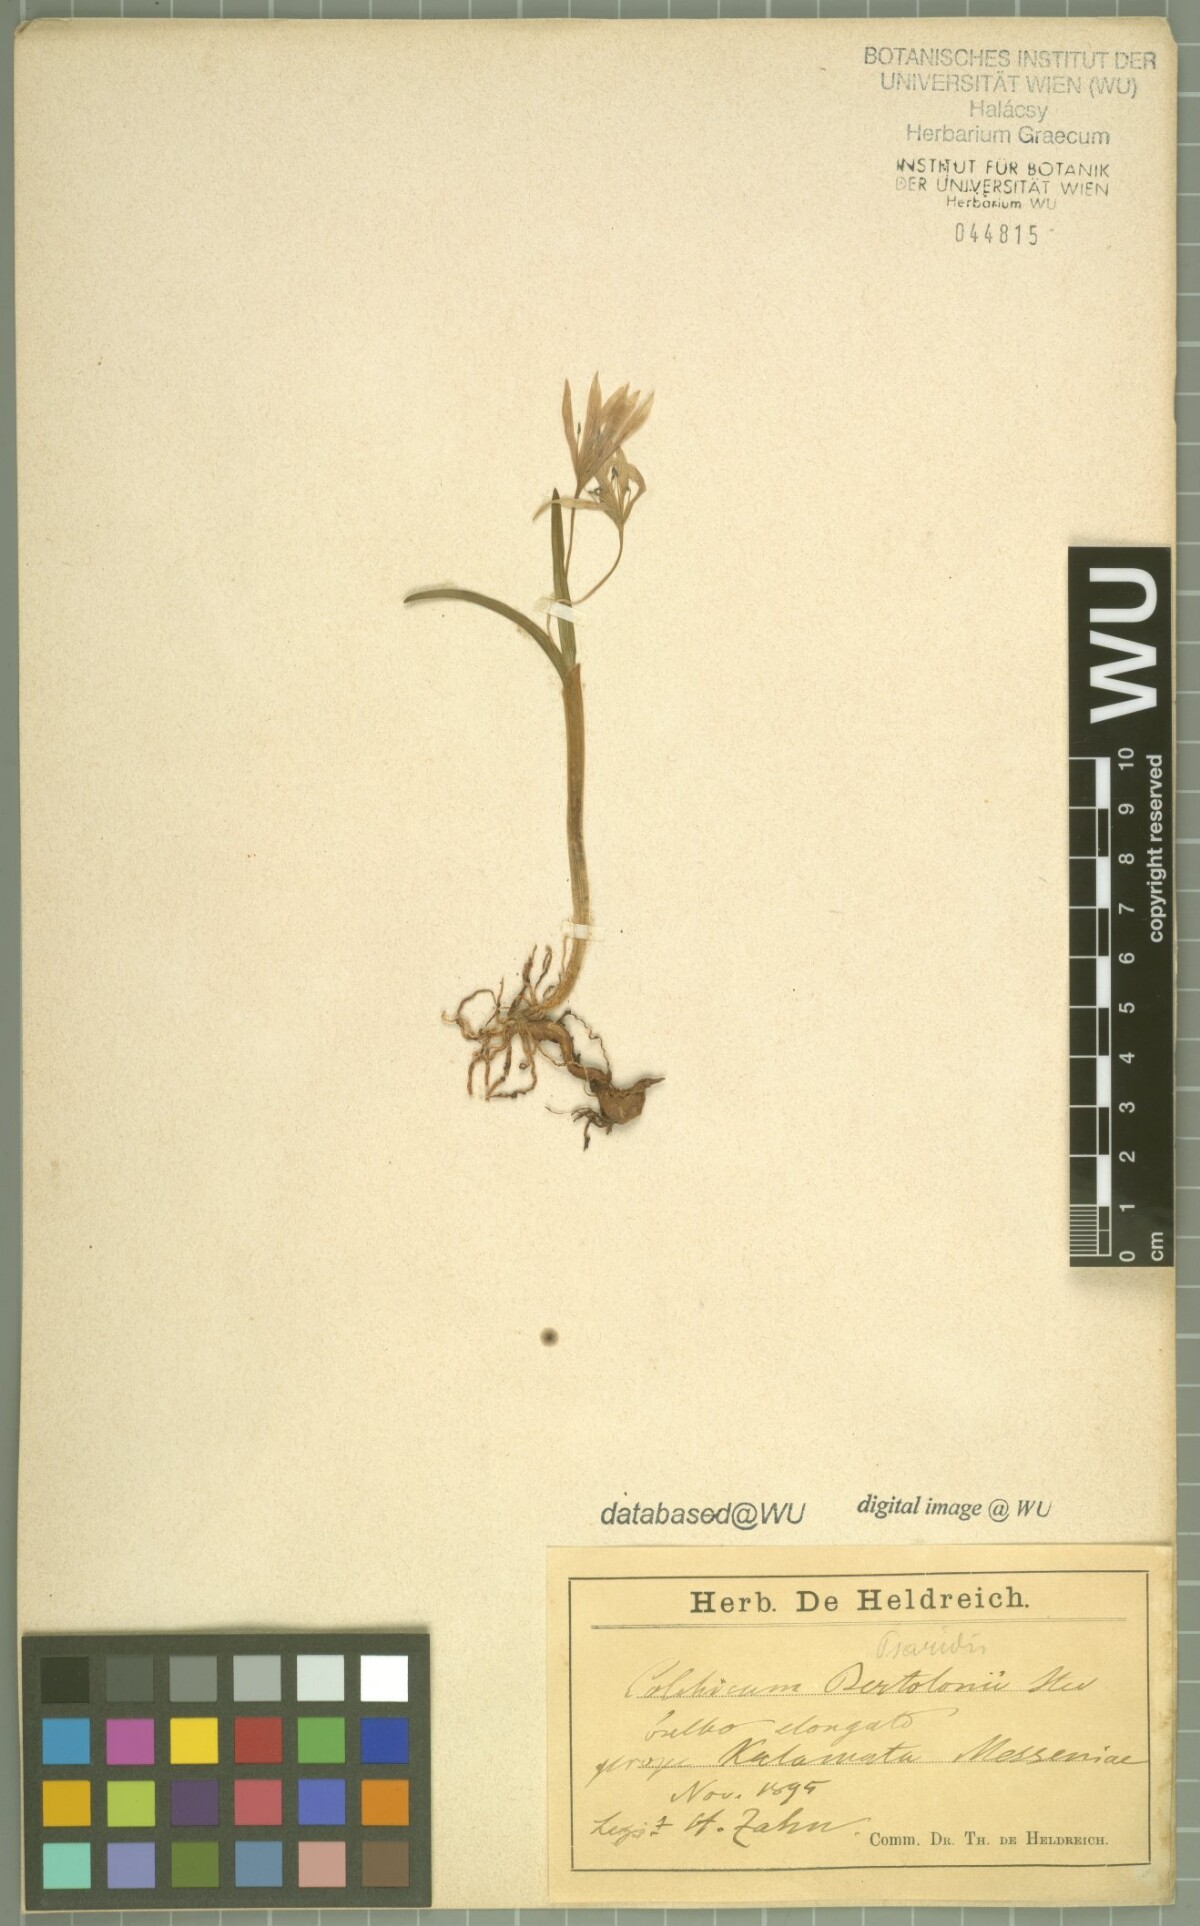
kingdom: Plantae
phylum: Tracheophyta
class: Liliopsida
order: Liliales
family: Colchicaceae
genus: Colchicum
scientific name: Colchicum zahnii
